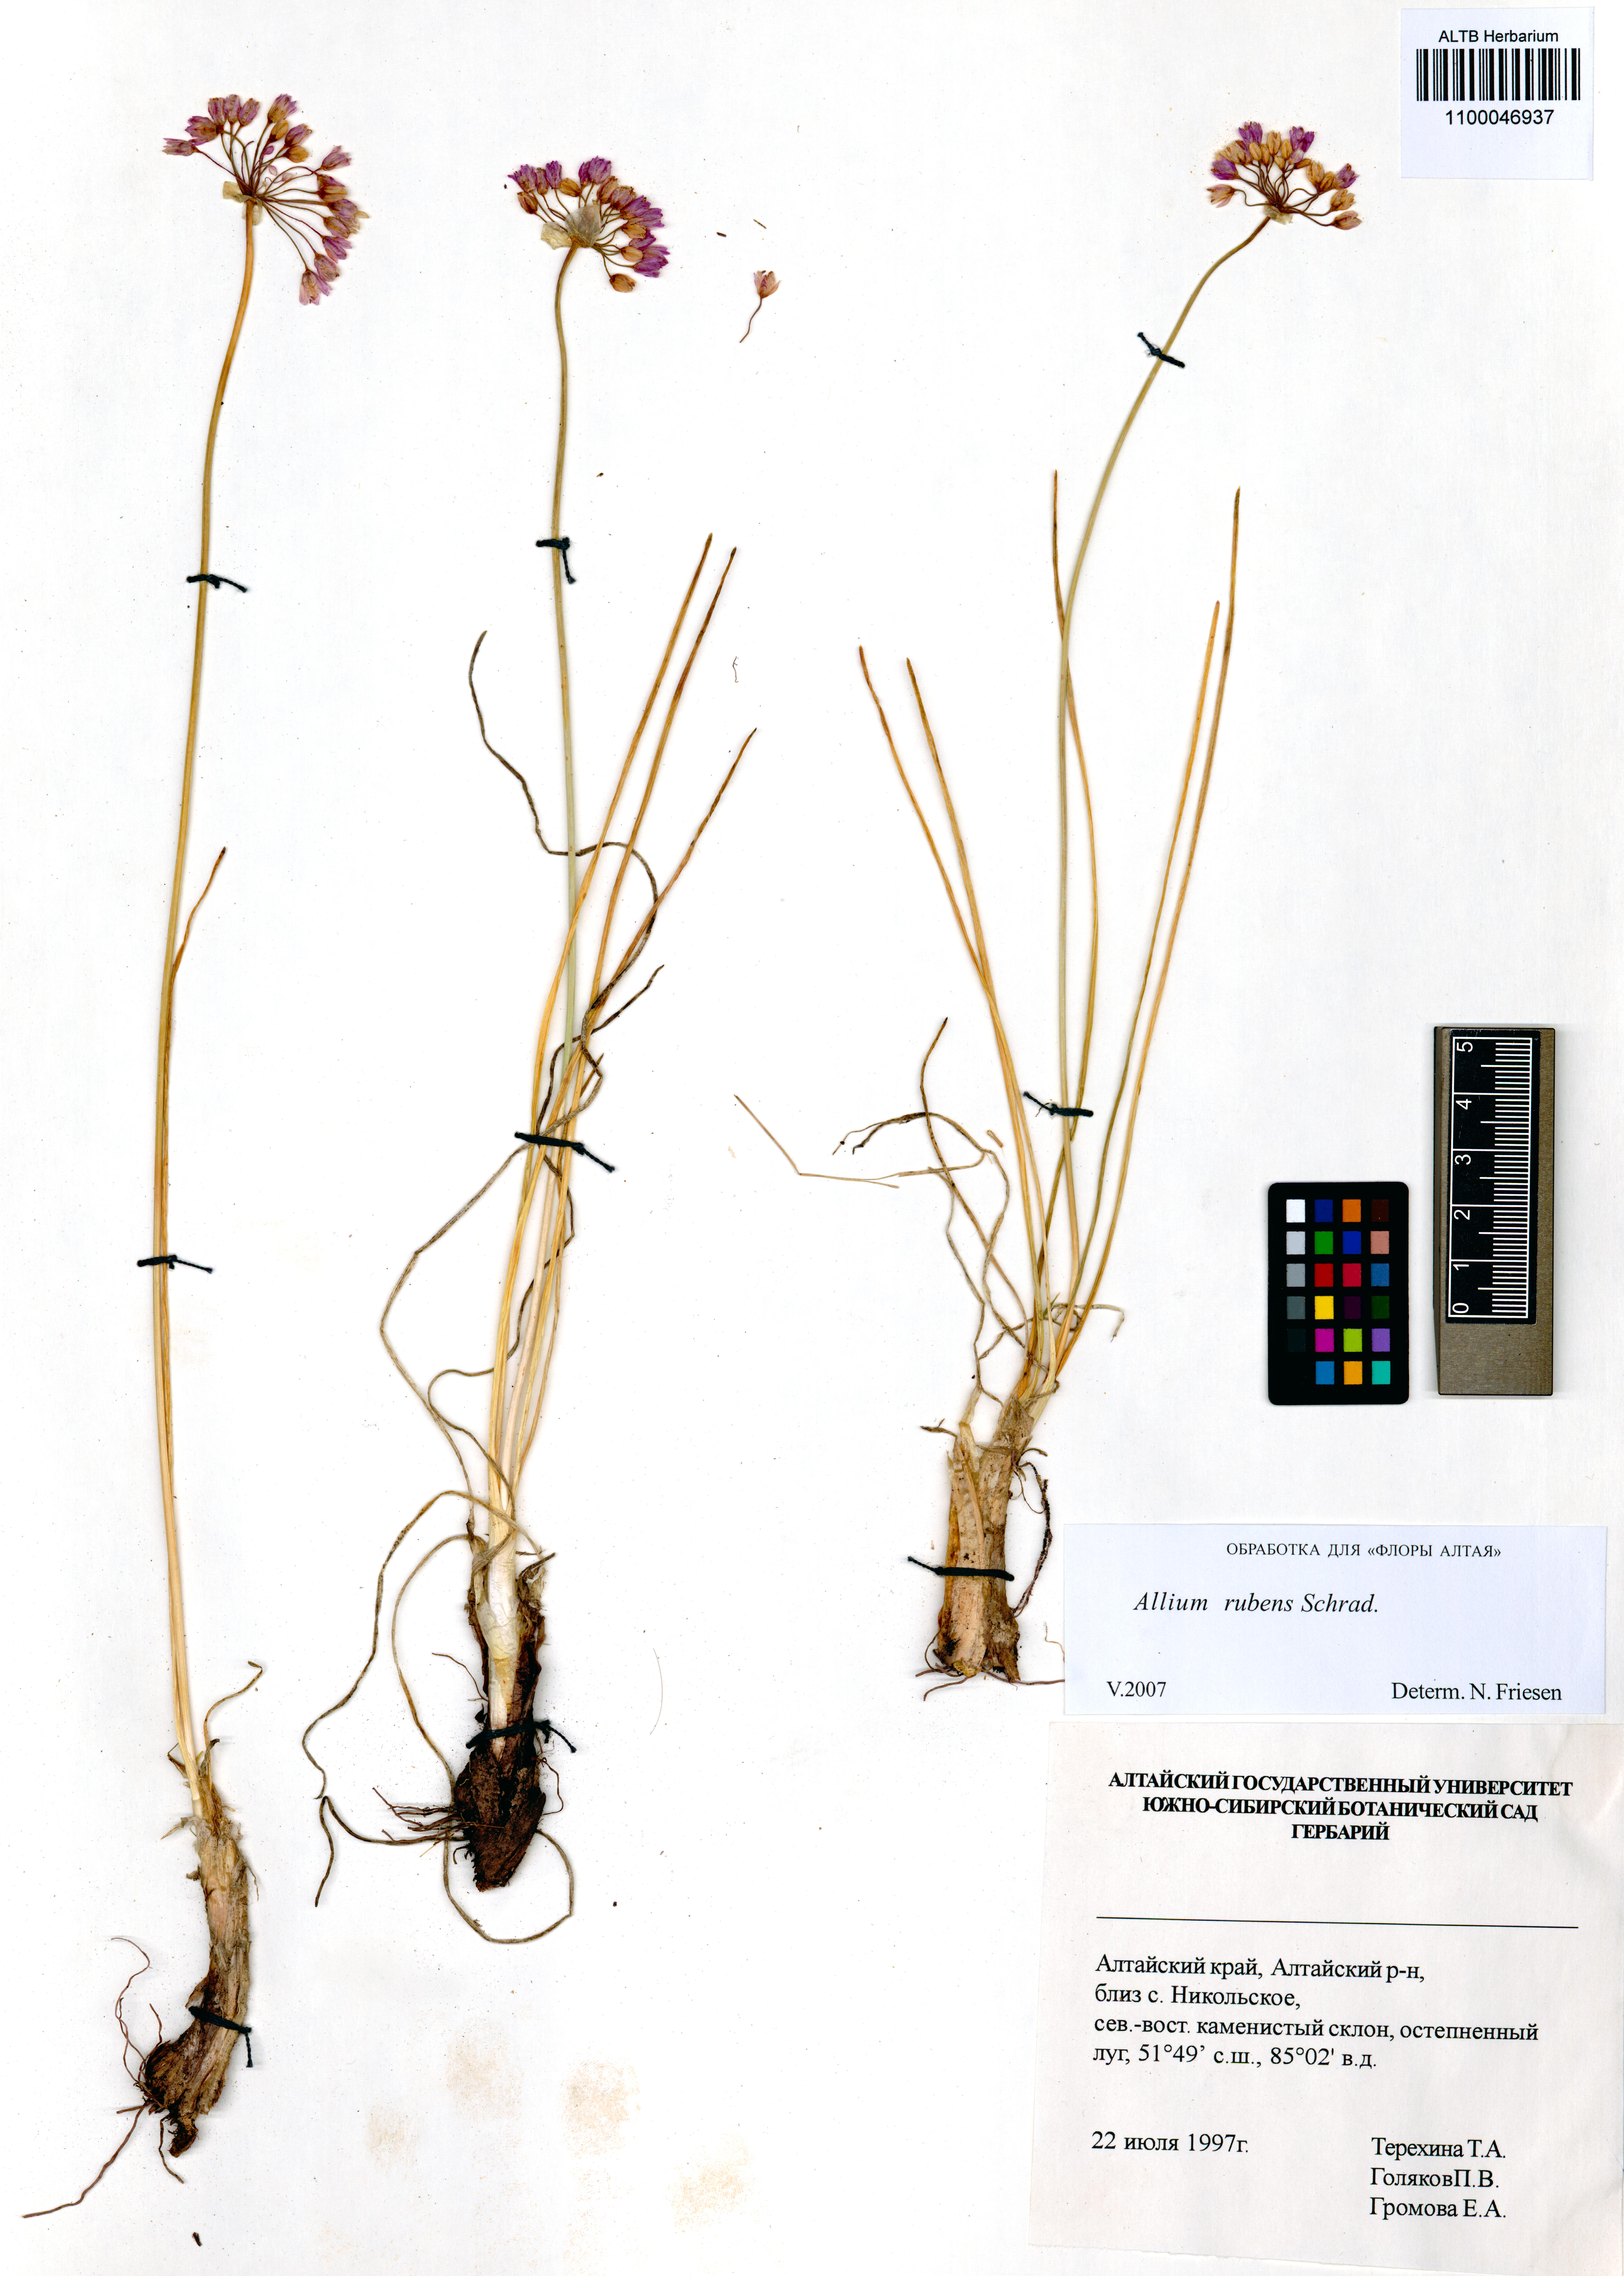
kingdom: Plantae
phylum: Tracheophyta
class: Liliopsida
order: Asparagales
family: Amaryllidaceae
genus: Allium
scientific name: Allium rubens
